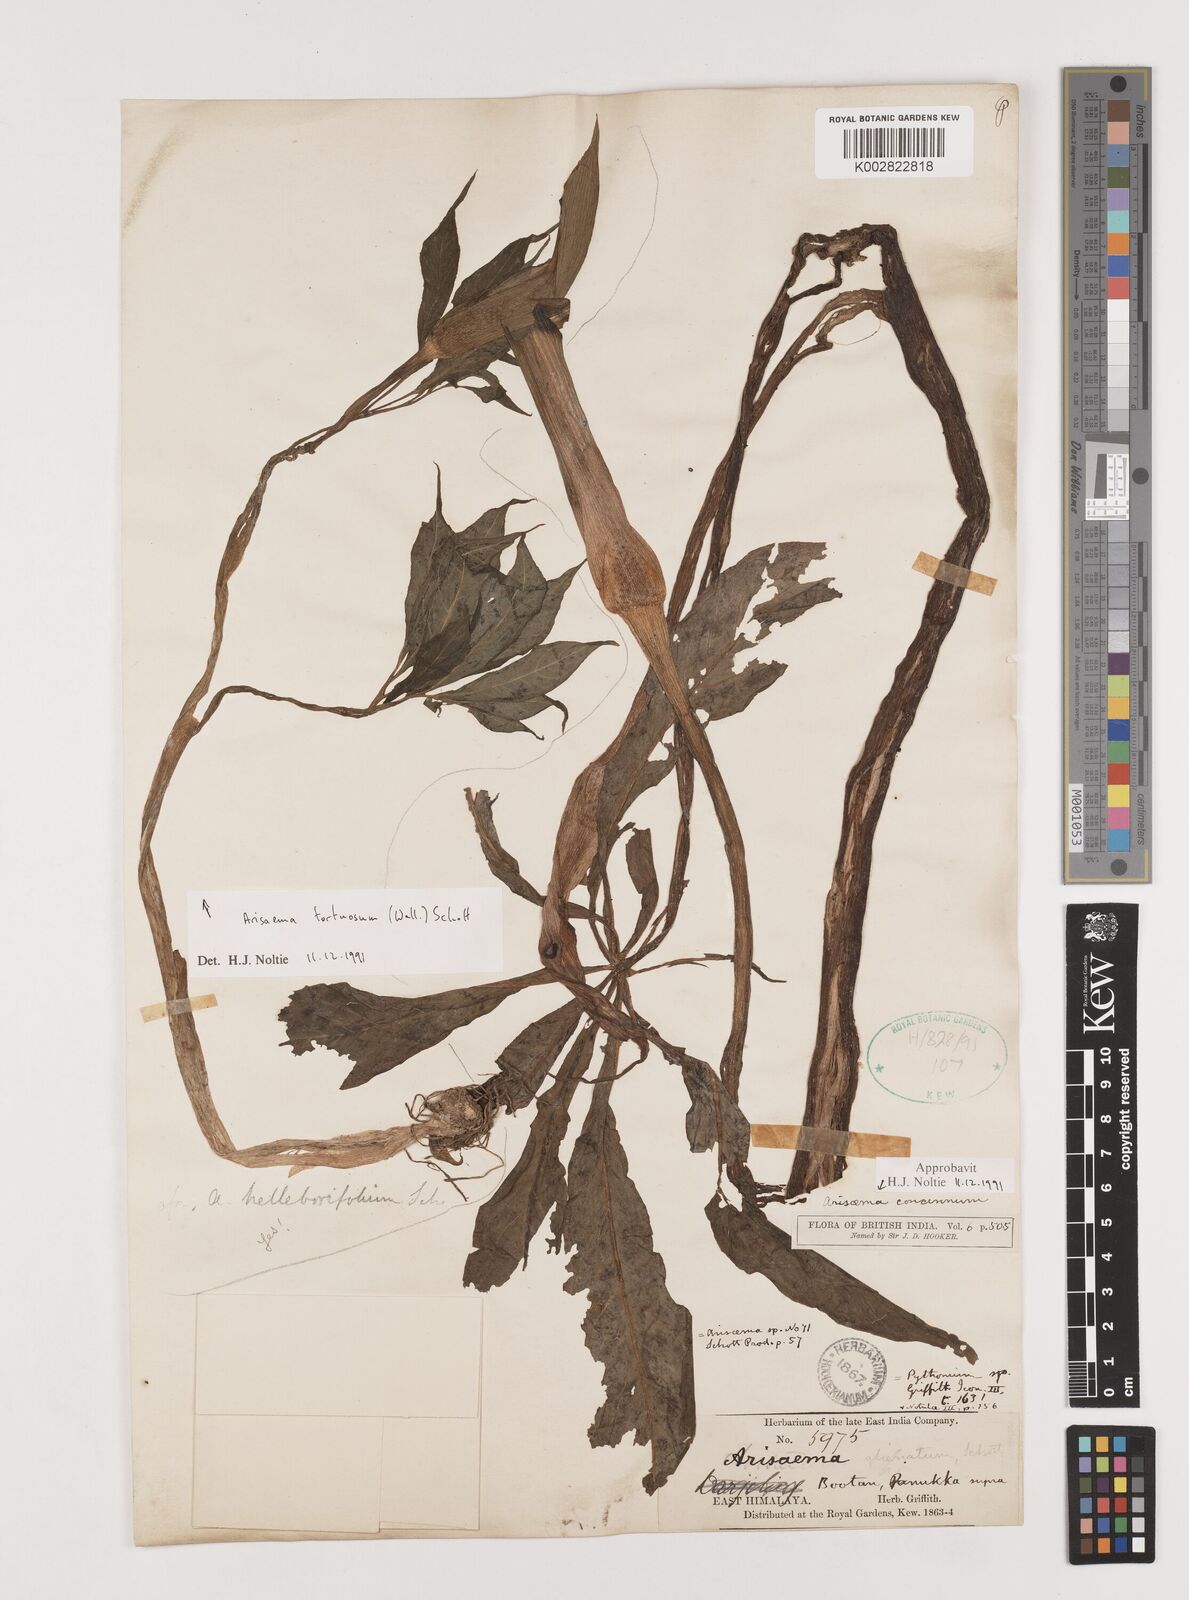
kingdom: Plantae
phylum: Tracheophyta
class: Liliopsida
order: Alismatales
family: Araceae
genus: Arisaema
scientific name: Arisaema concinnum
